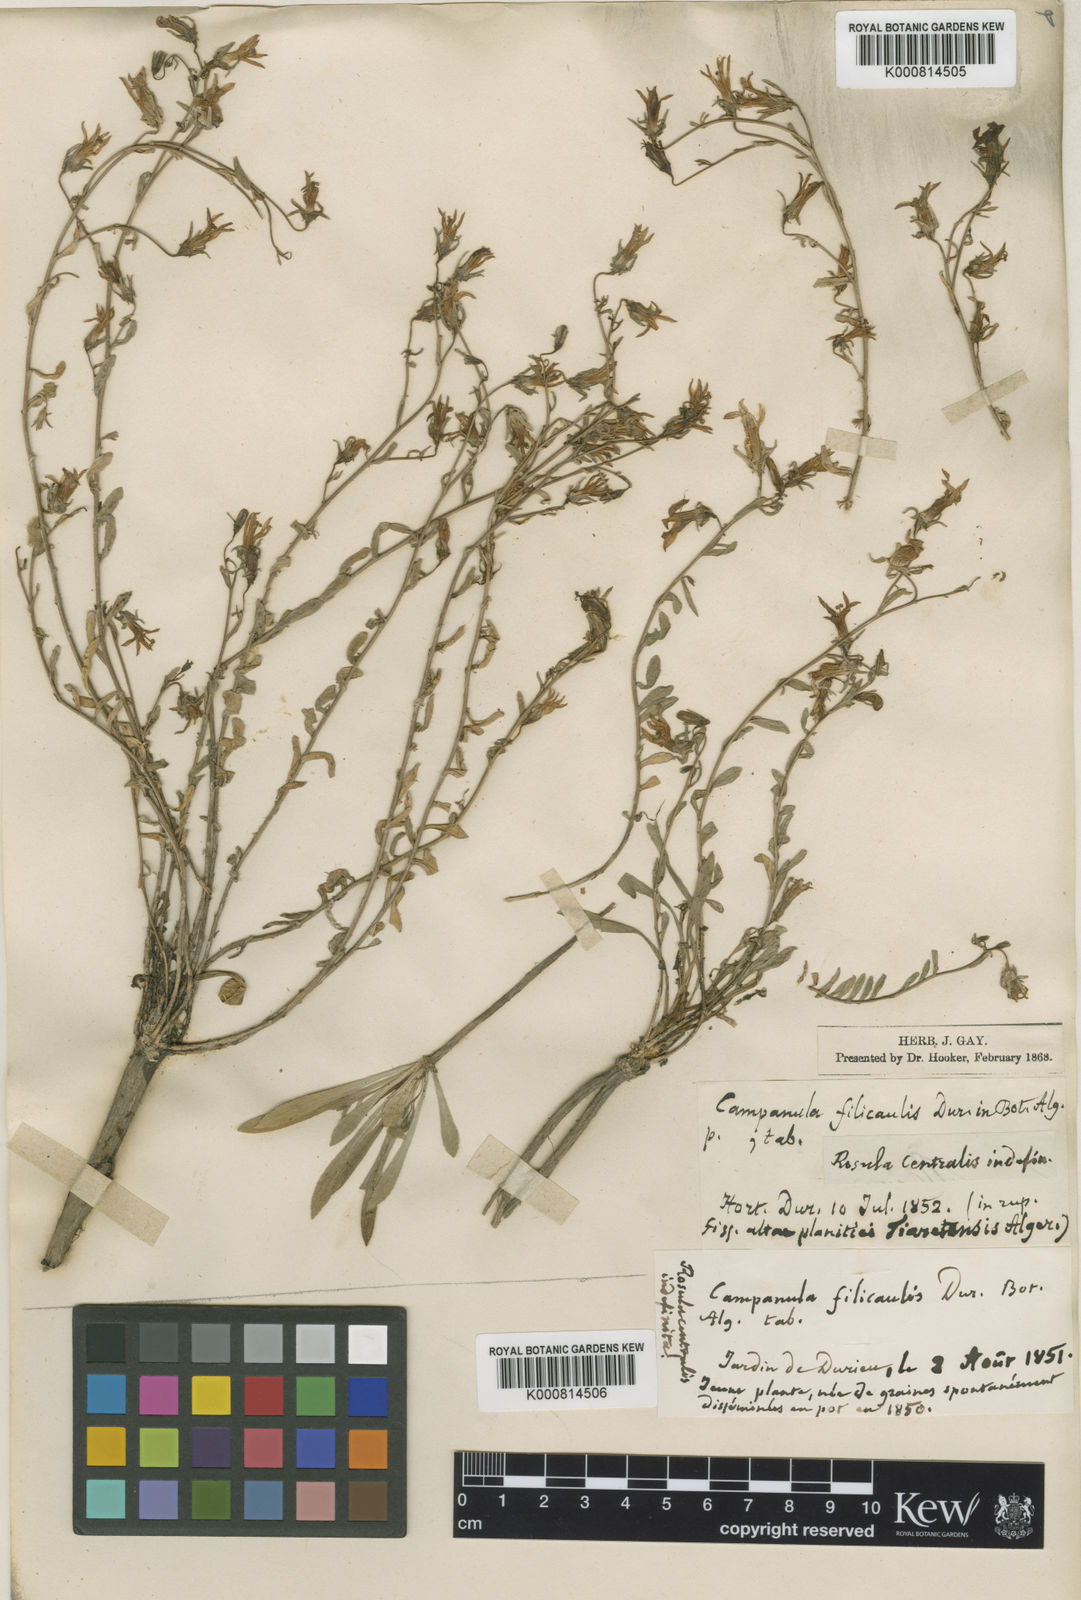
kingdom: Plantae
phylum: Tracheophyta
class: Magnoliopsida
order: Asterales
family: Campanulaceae
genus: Campanula
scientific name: Campanula filicaulis
